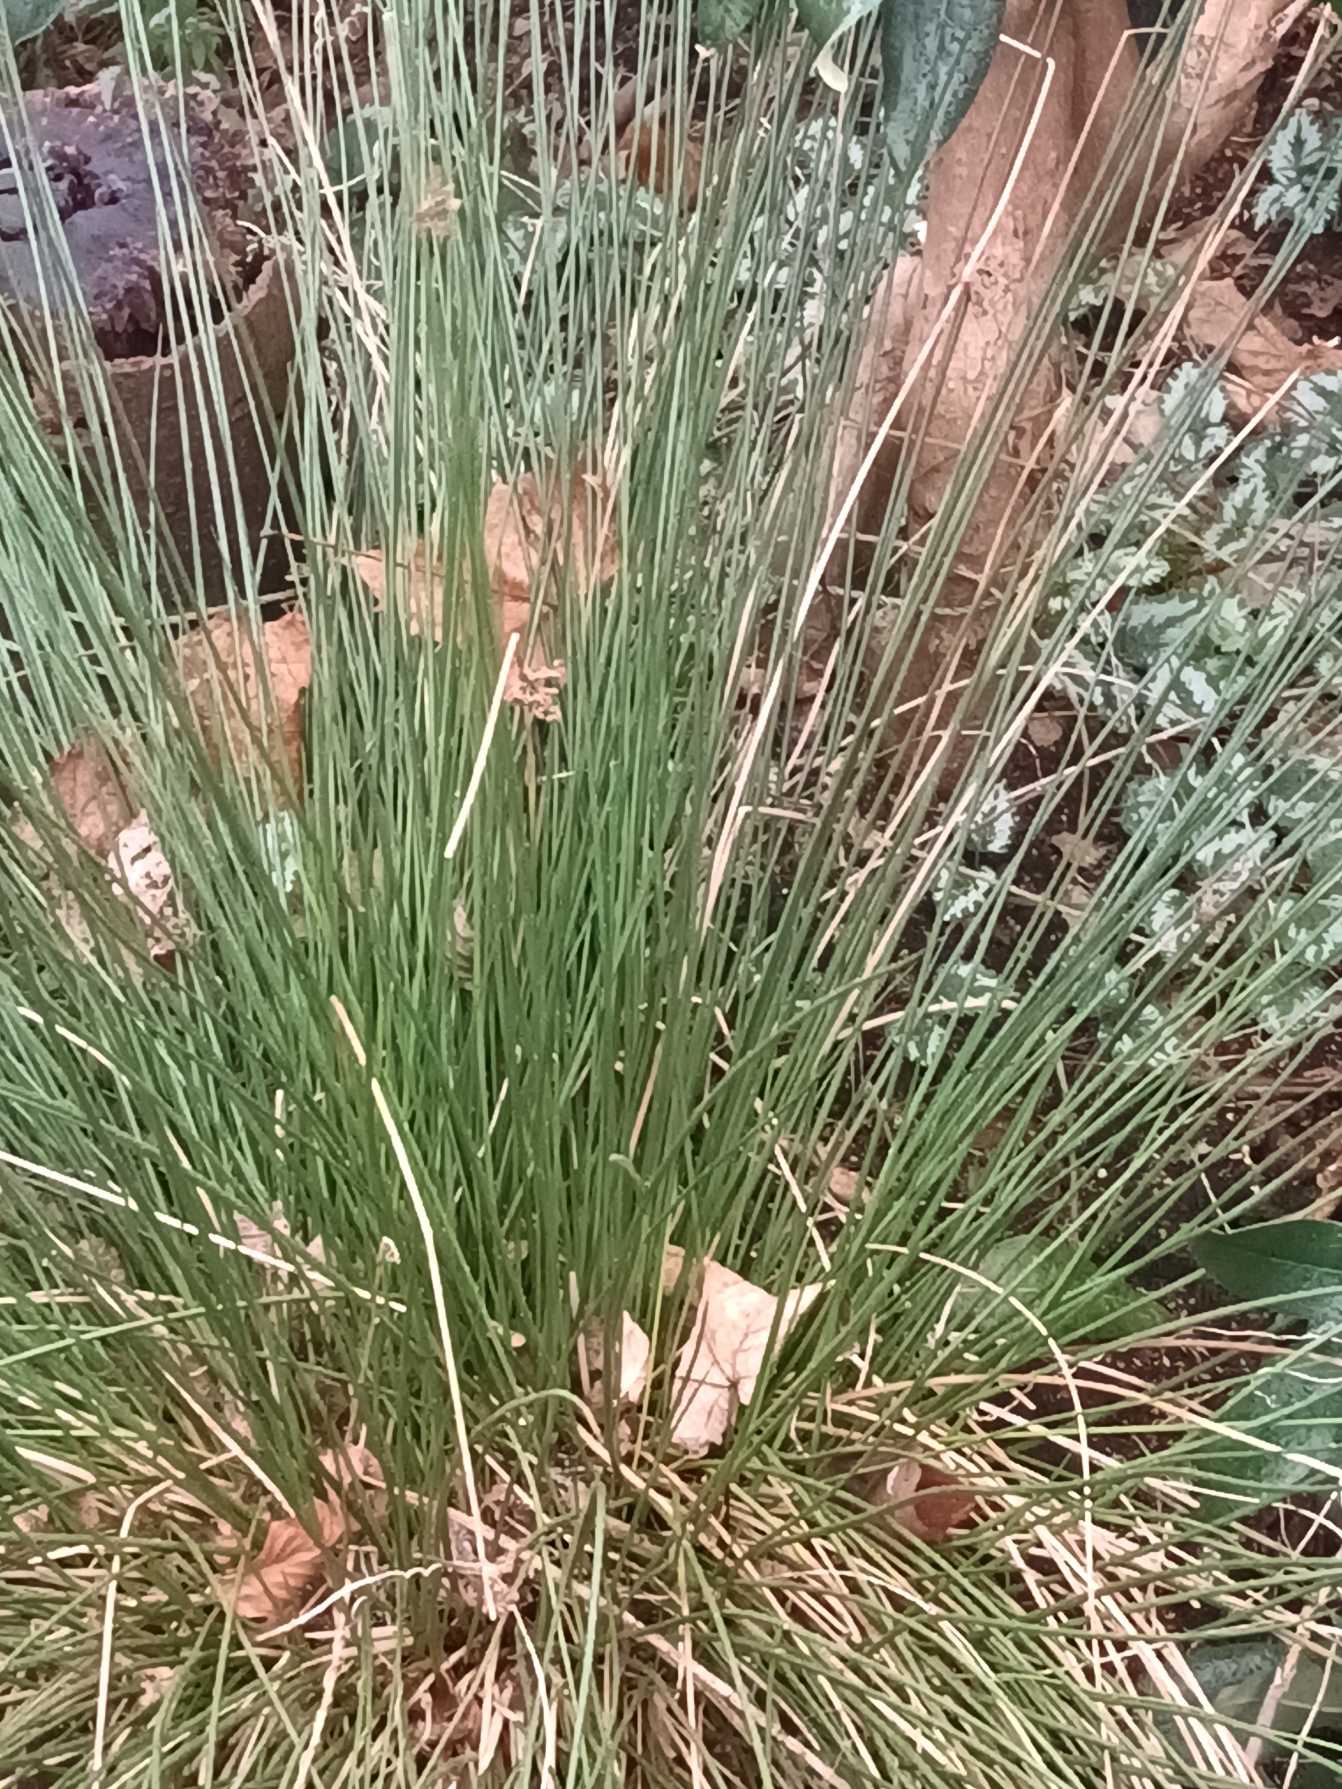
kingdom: Plantae
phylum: Tracheophyta
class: Liliopsida
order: Poales
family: Juncaceae
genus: Juncus
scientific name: Juncus effusus
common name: Lyse-siv
